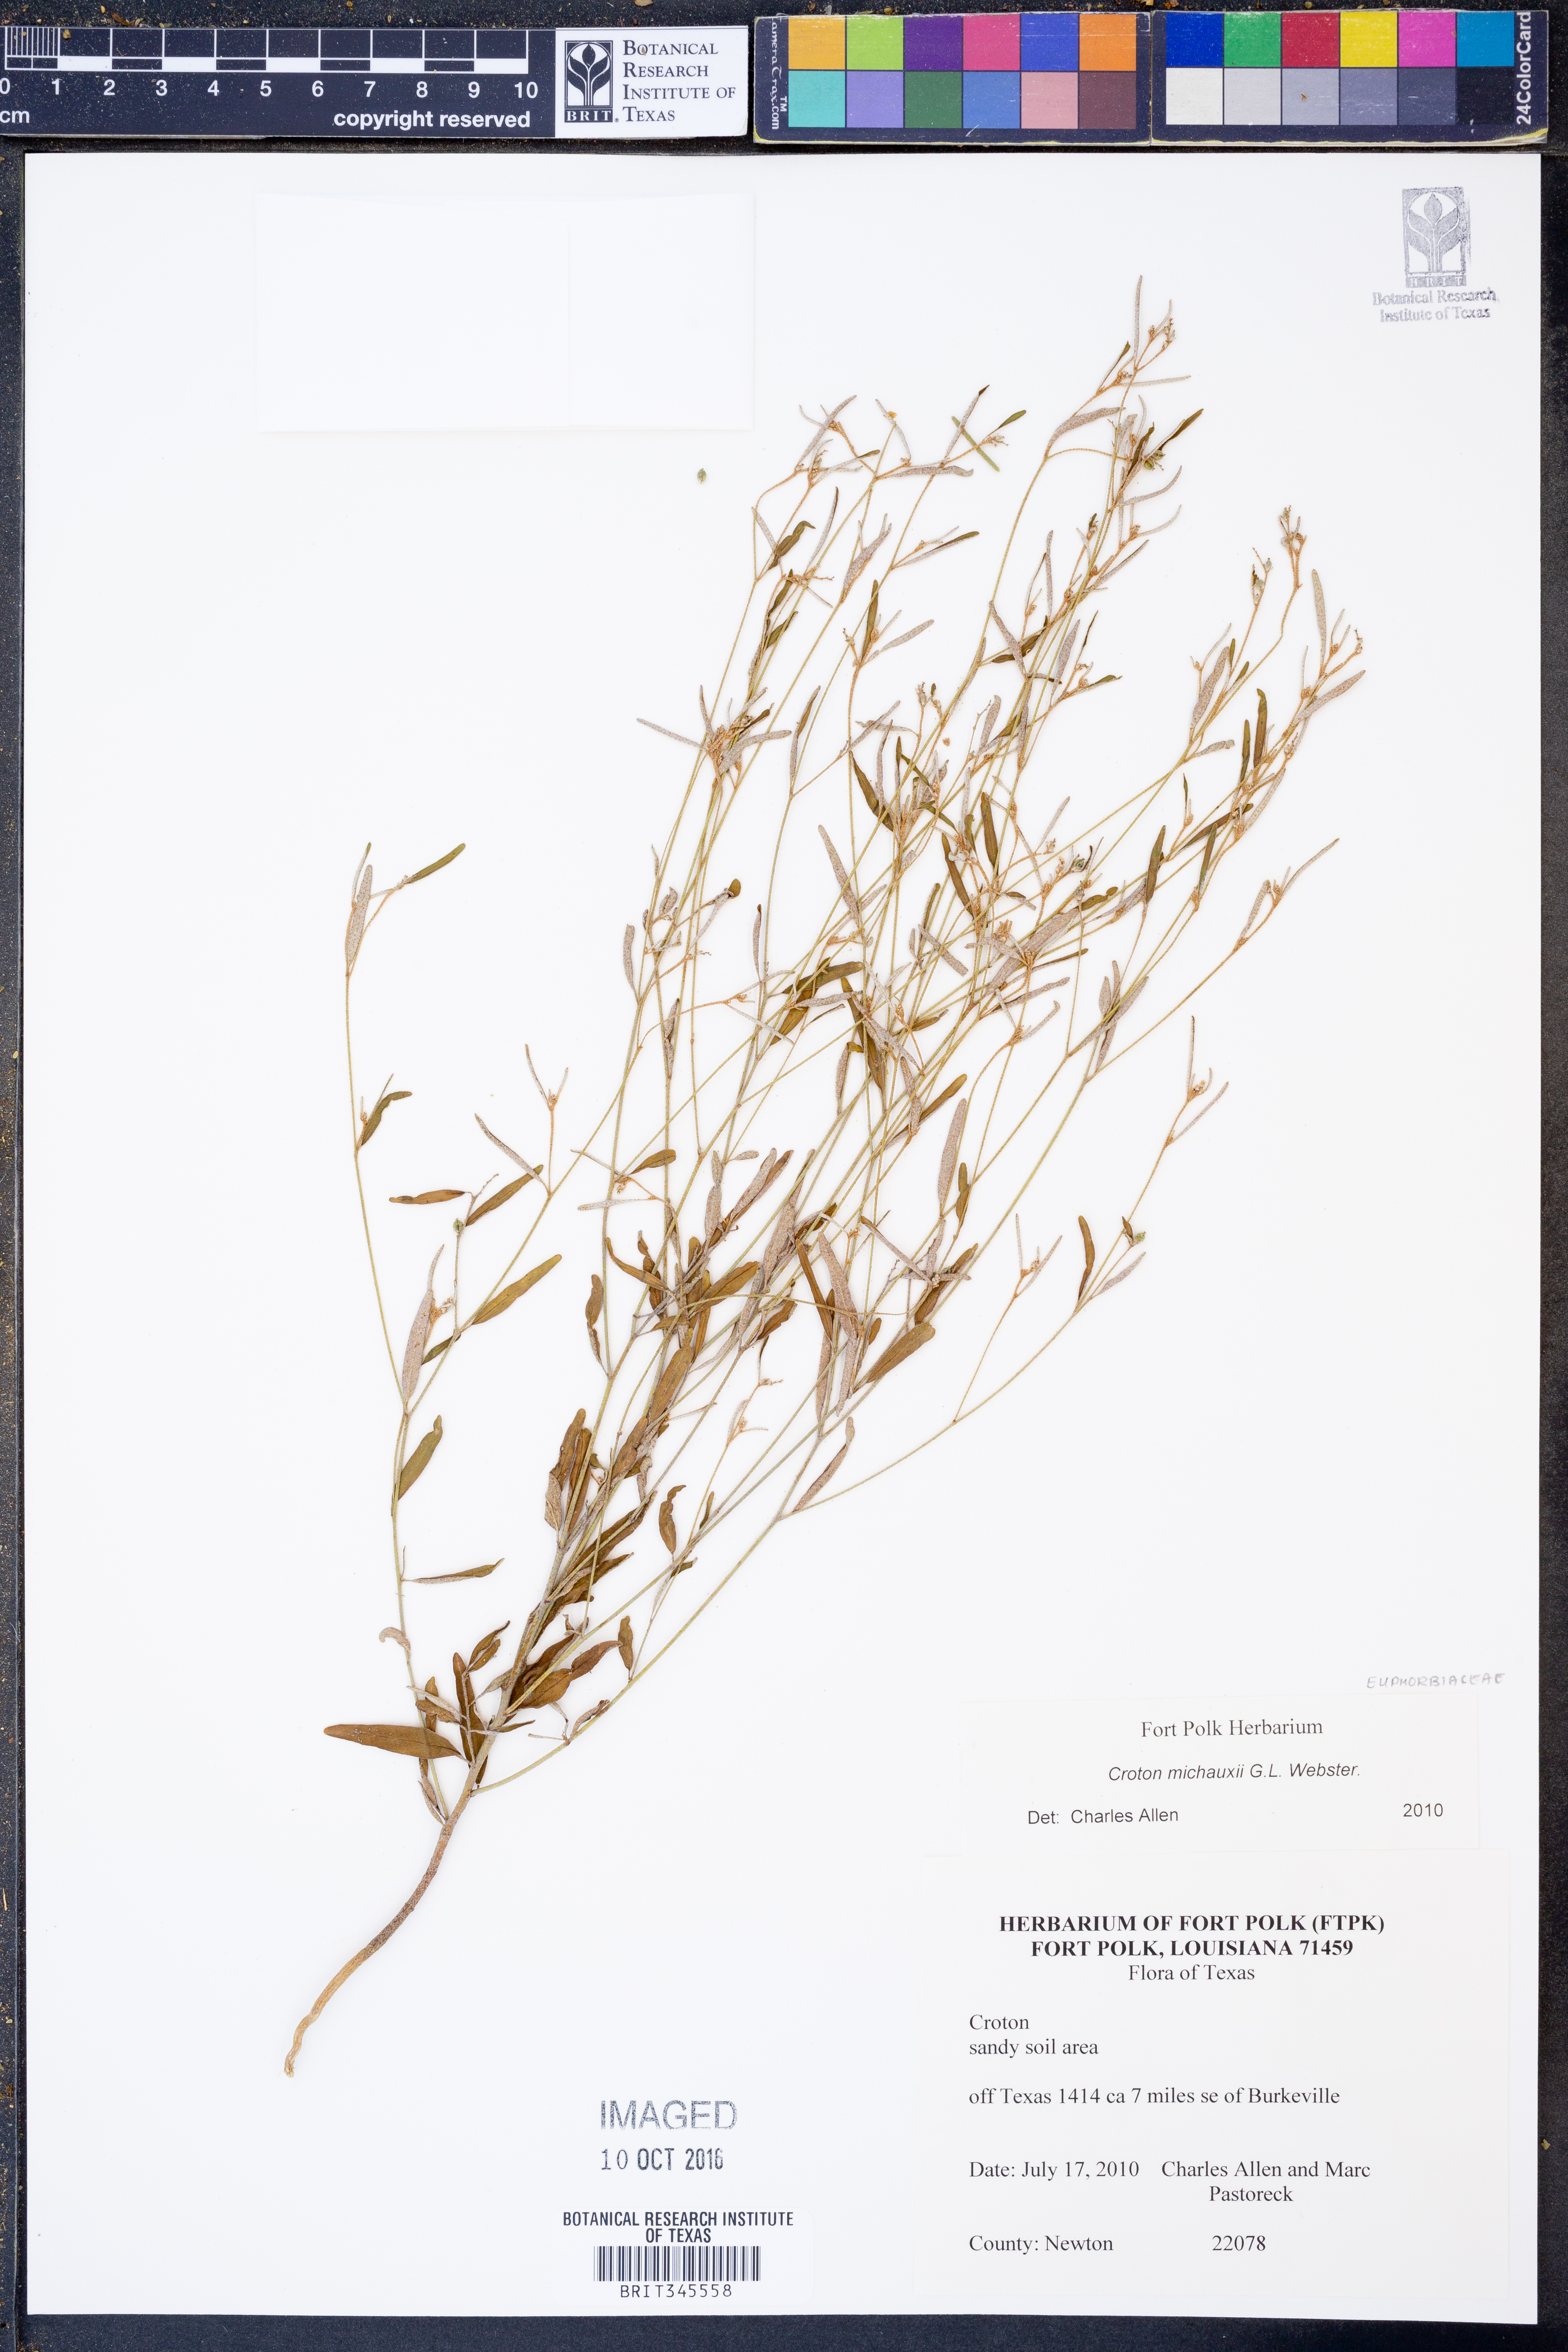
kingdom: Plantae
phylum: Tracheophyta
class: Magnoliopsida
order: Malpighiales
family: Euphorbiaceae
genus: Croton
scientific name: Croton michauxii
